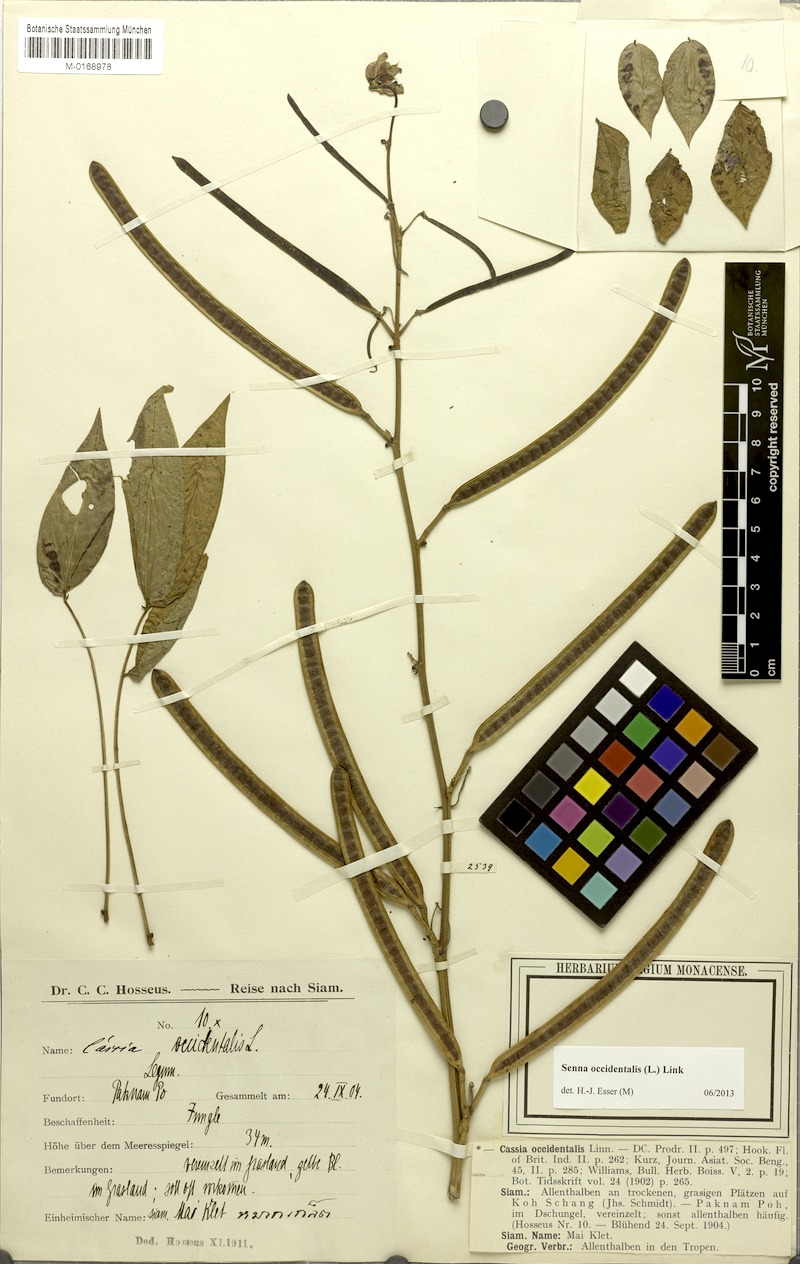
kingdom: Plantae
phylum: Tracheophyta
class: Magnoliopsida
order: Fabales
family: Fabaceae
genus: Senna
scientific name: Senna occidentalis
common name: Septicweed
